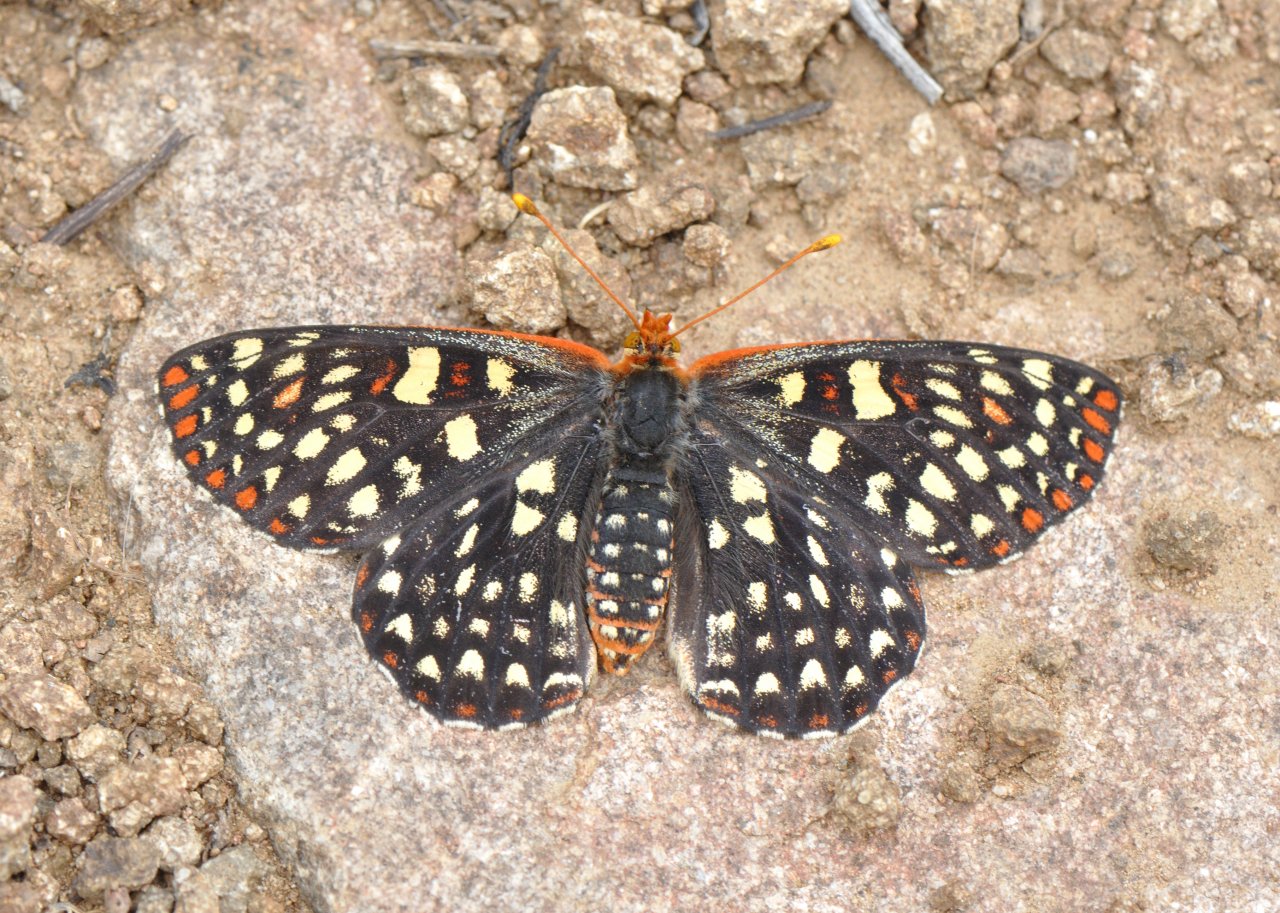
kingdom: Animalia
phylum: Arthropoda
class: Insecta
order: Lepidoptera
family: Nymphalidae
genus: Occidryas
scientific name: Occidryas chalcedona
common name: Chalcedon Checkerspot
